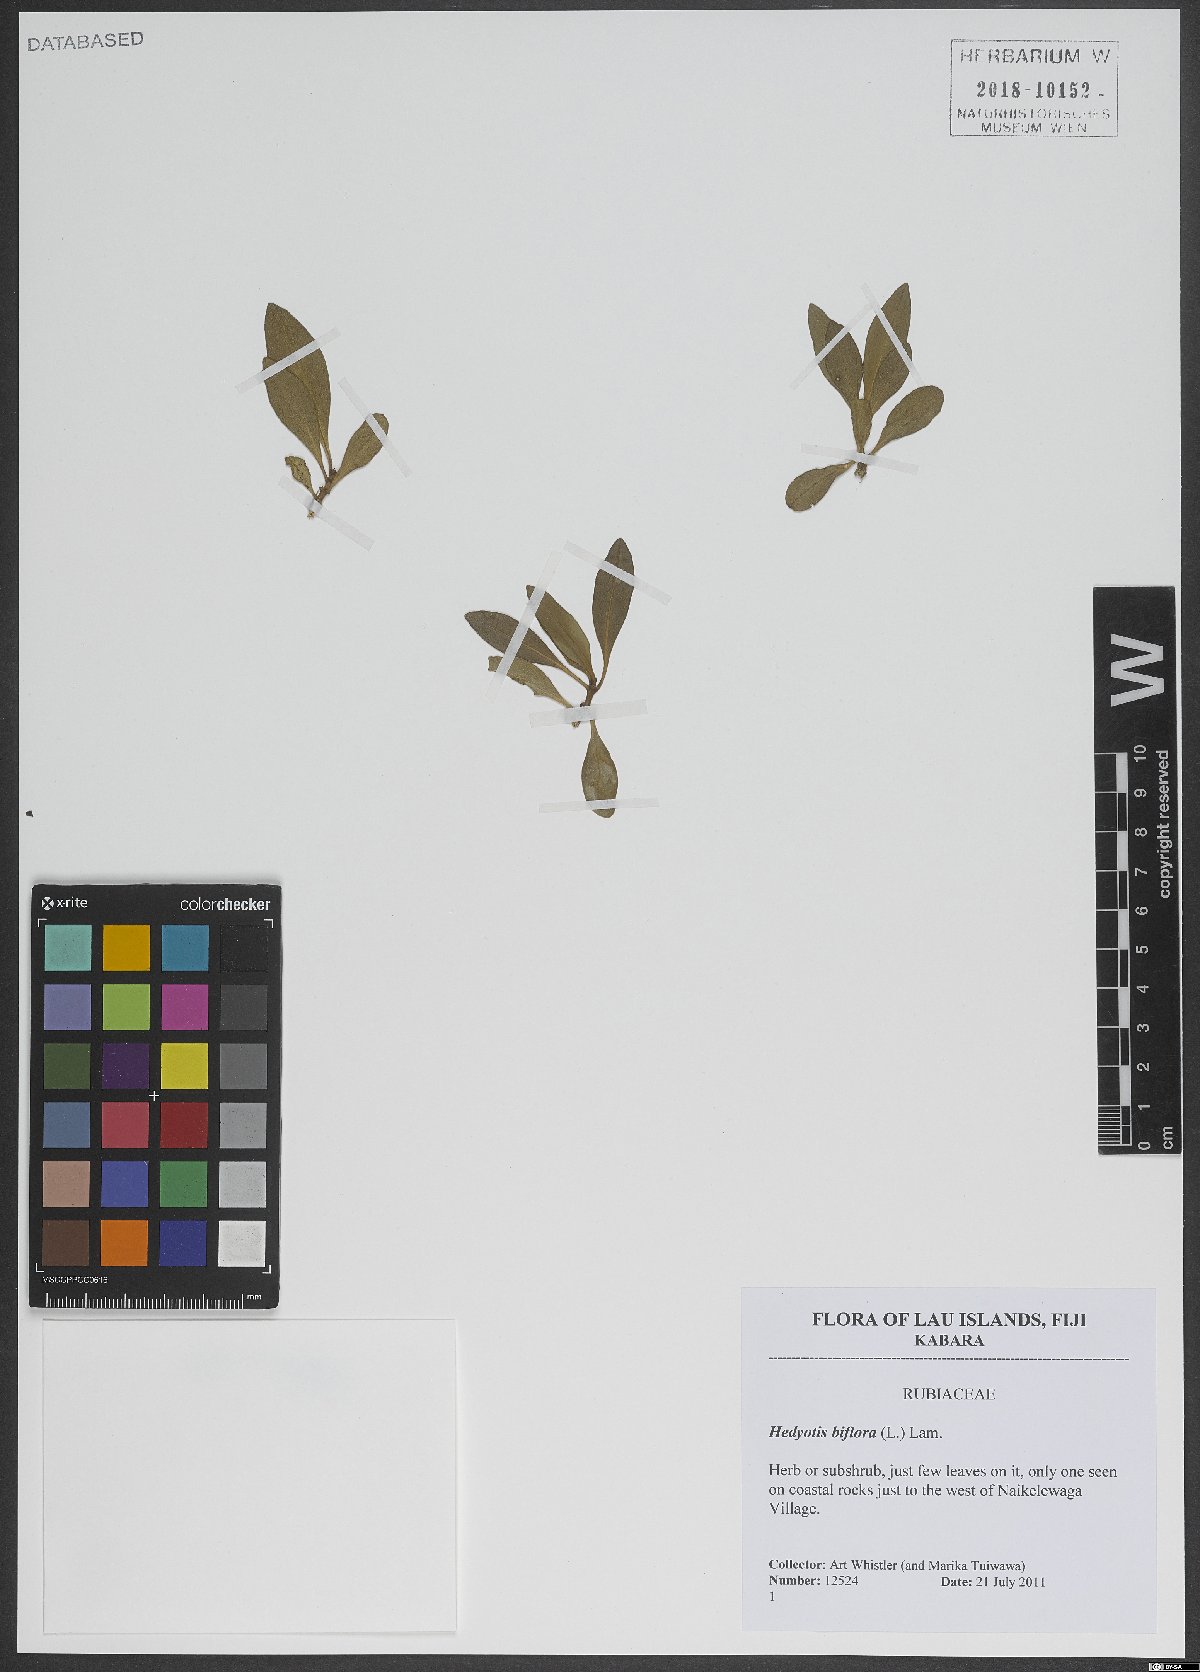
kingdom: Plantae
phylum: Tracheophyta
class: Magnoliopsida
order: Gentianales
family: Rubiaceae
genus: Leptopetalum
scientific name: Leptopetalum biflorum
